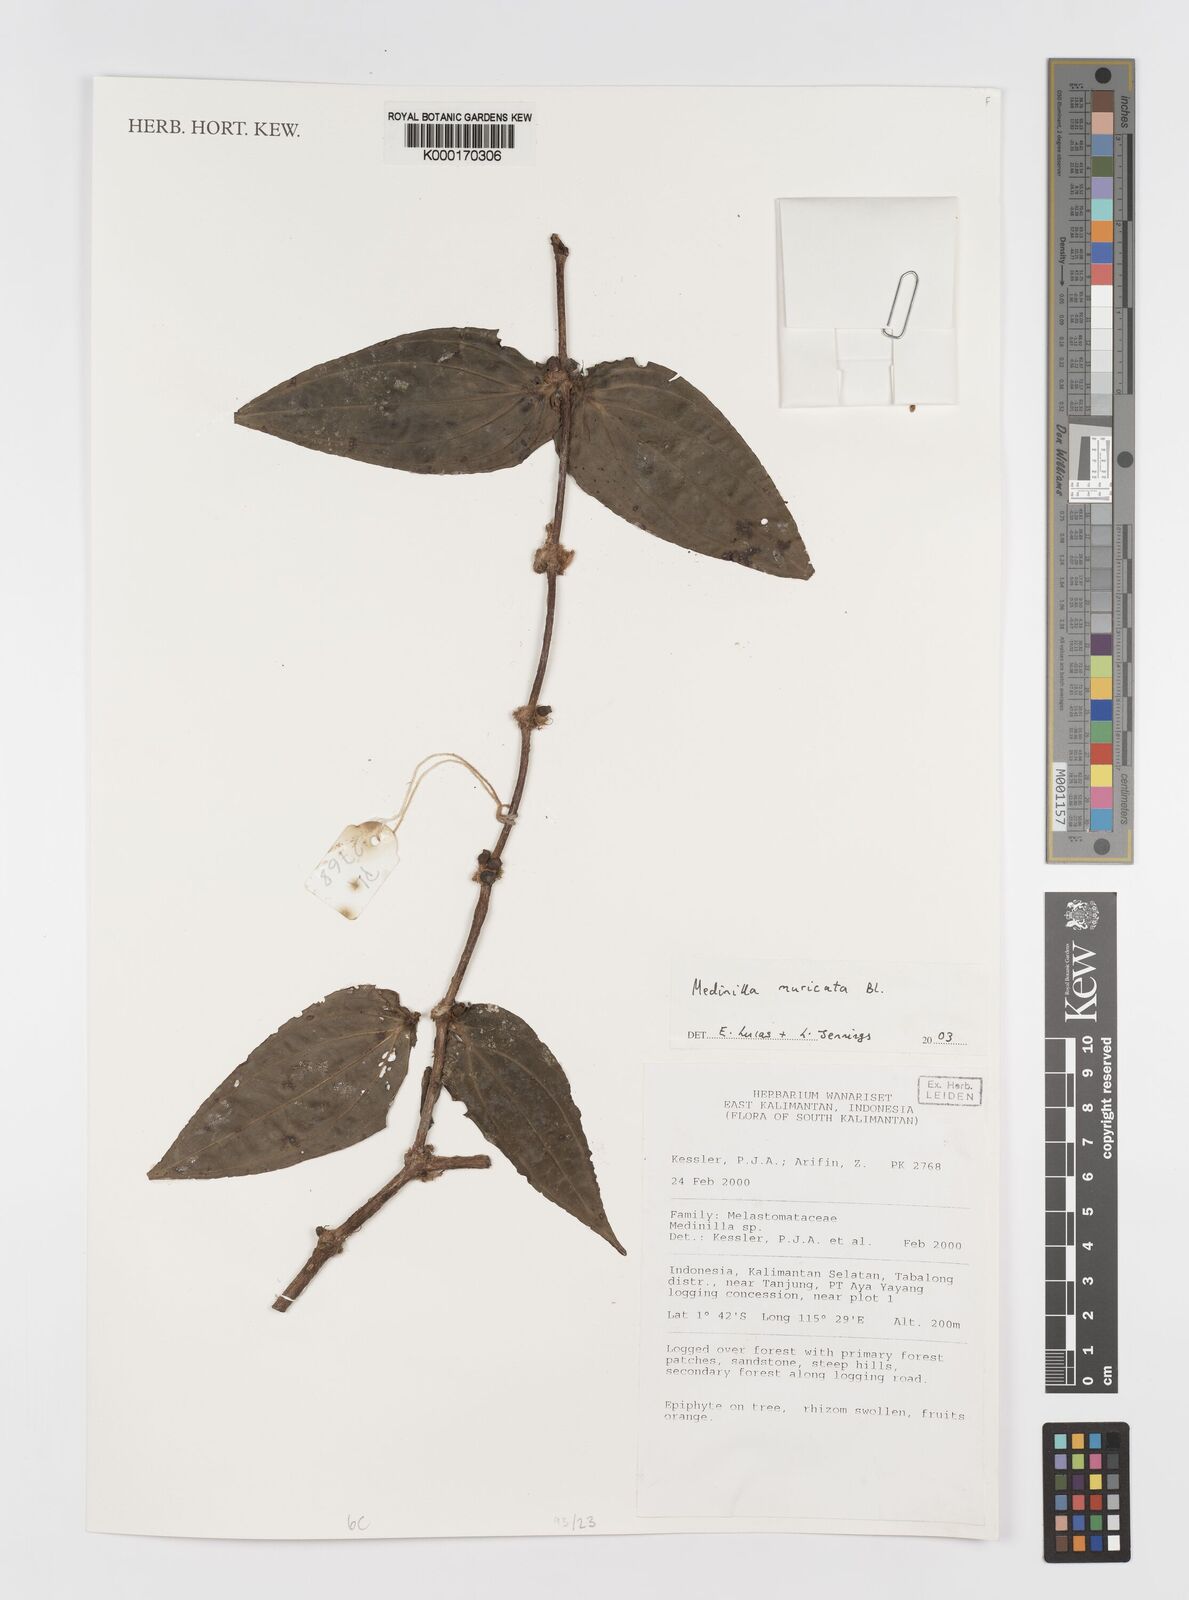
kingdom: Plantae
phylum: Tracheophyta
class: Magnoliopsida
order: Myrtales
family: Melastomataceae
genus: Medinilla
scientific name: Medinilla muricata
